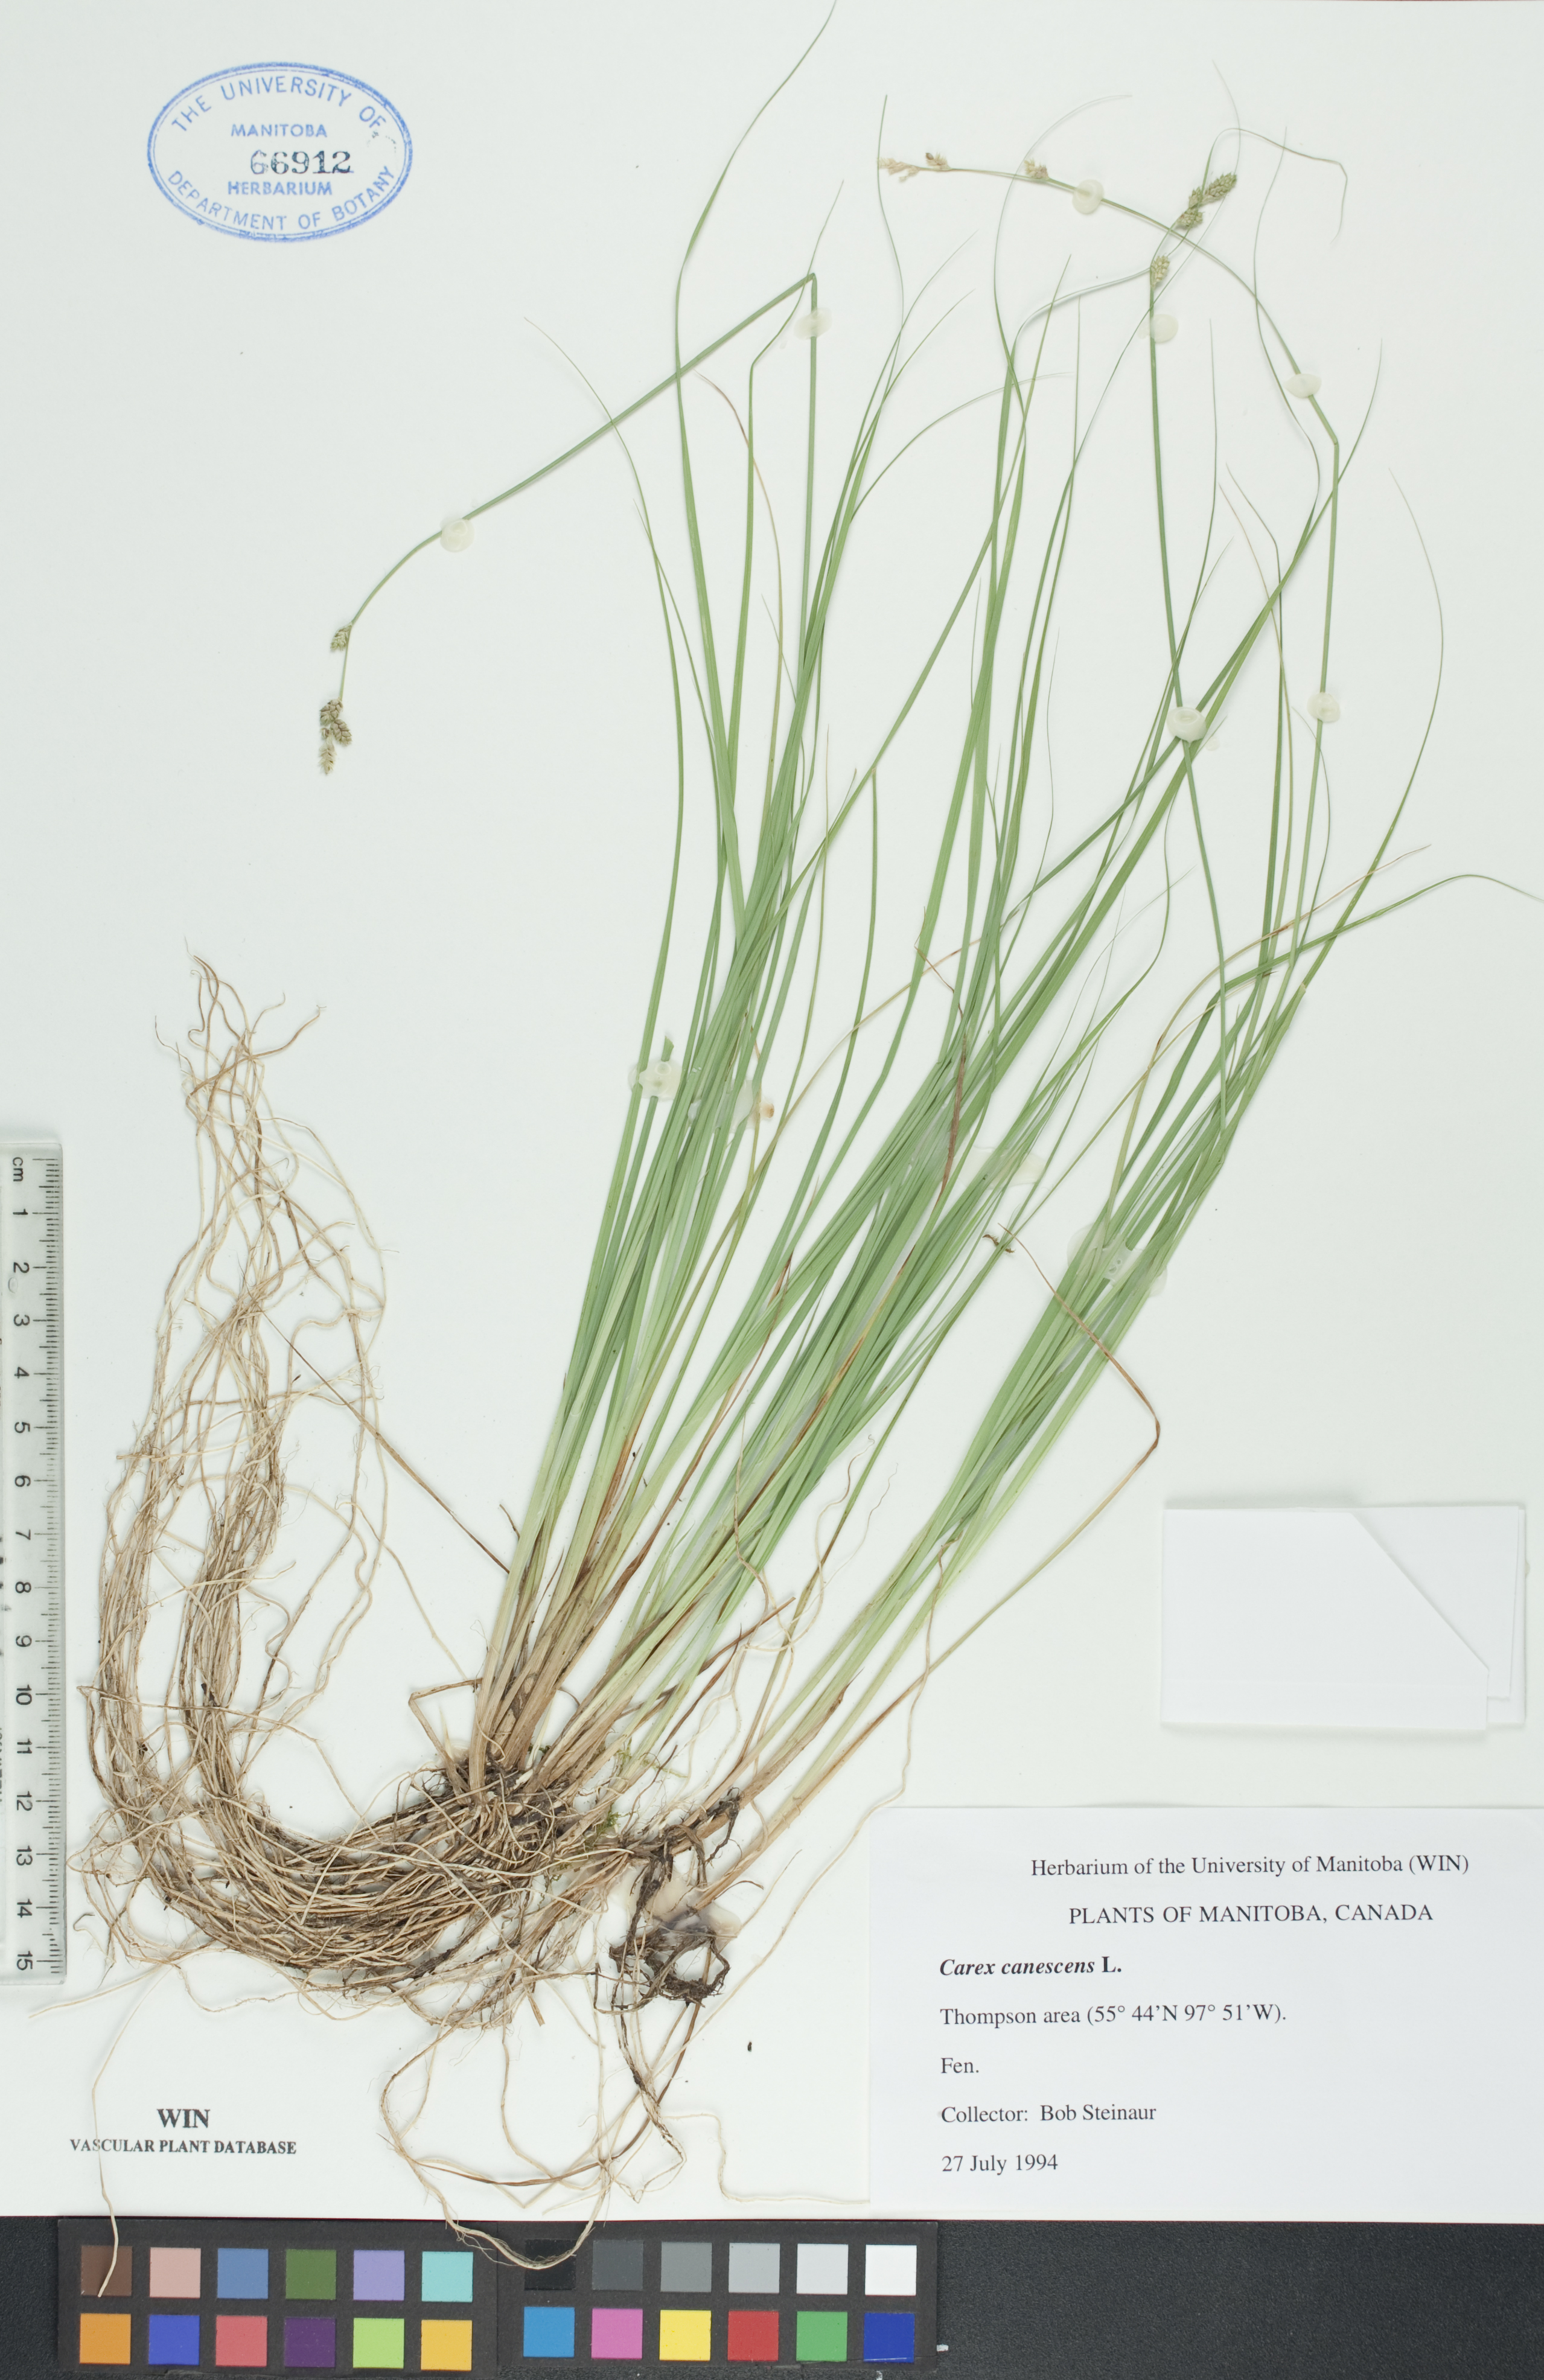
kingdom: Plantae
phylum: Tracheophyta
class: Liliopsida
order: Poales
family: Cyperaceae
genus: Carex
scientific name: Carex canescens
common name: White sedge
